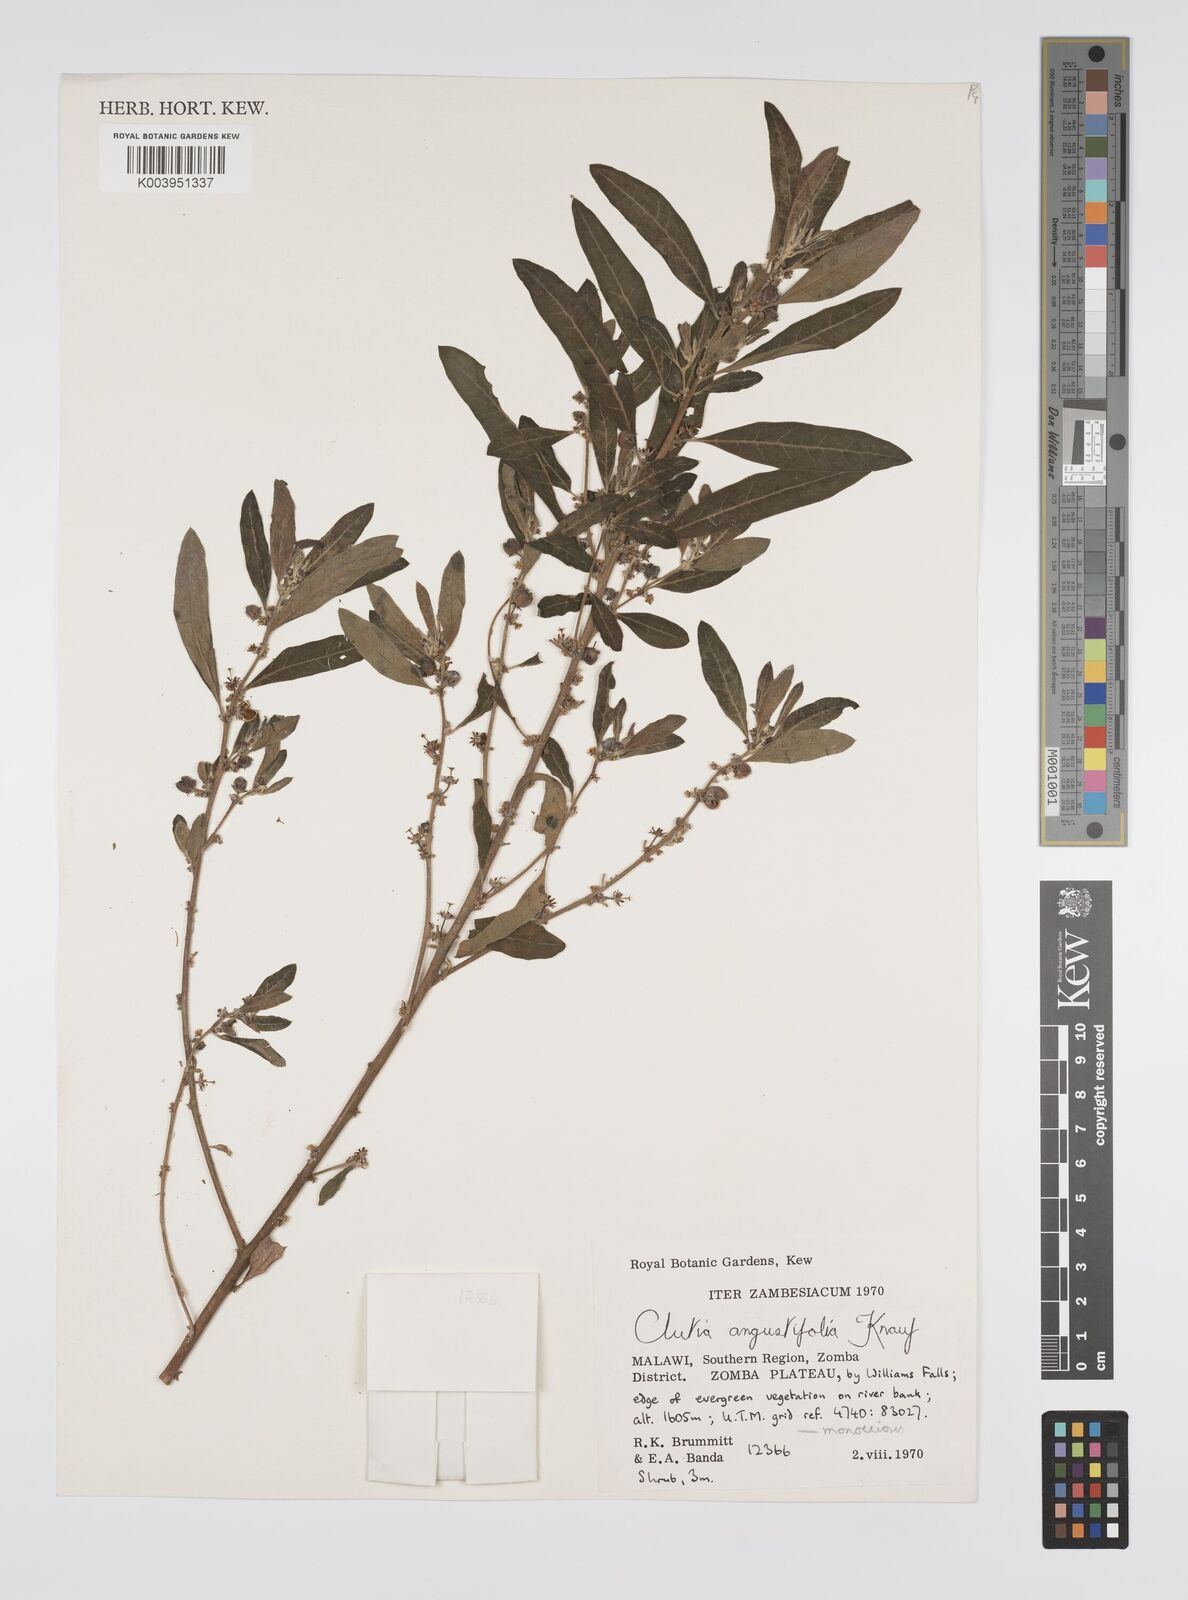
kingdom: Plantae
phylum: Tracheophyta
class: Magnoliopsida
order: Malpighiales
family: Peraceae
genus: Clutia
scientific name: Clutia angustifolia
